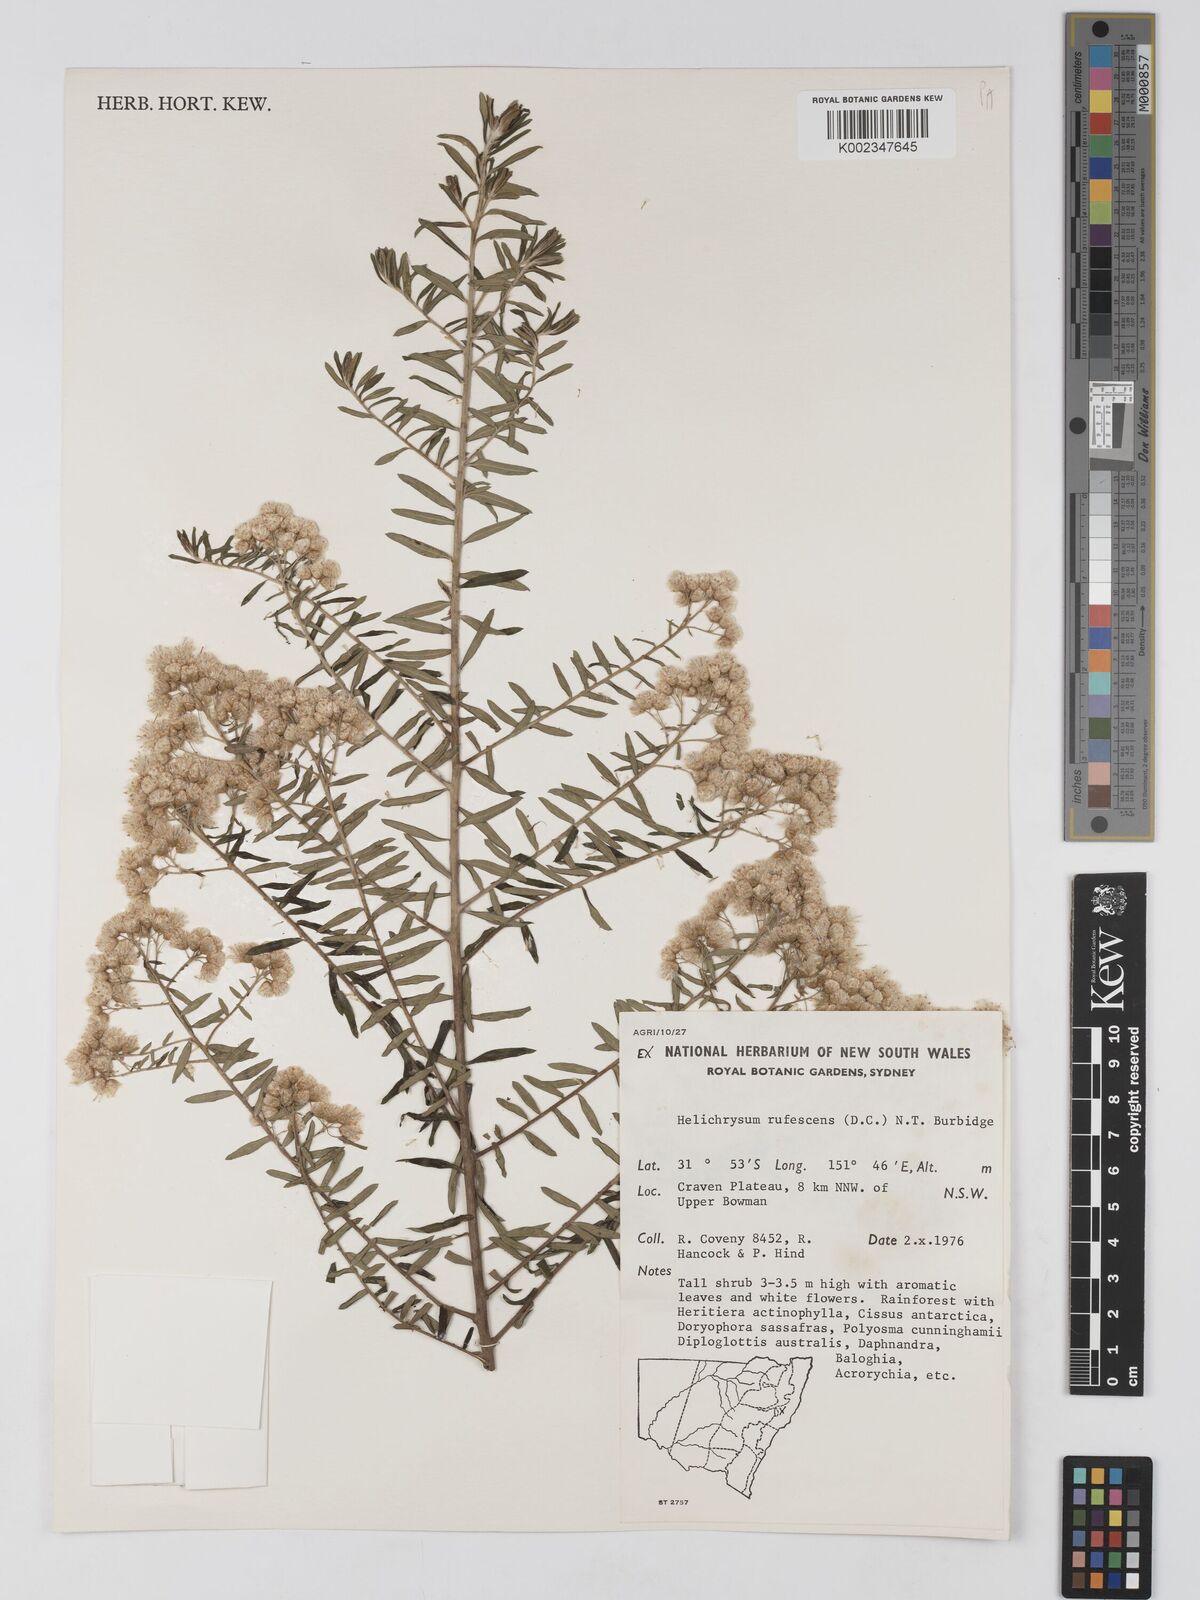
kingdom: Plantae
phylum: Tracheophyta
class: Magnoliopsida
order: Asterales
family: Asteraceae
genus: Ozothamnus
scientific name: Ozothamnus rufescens
